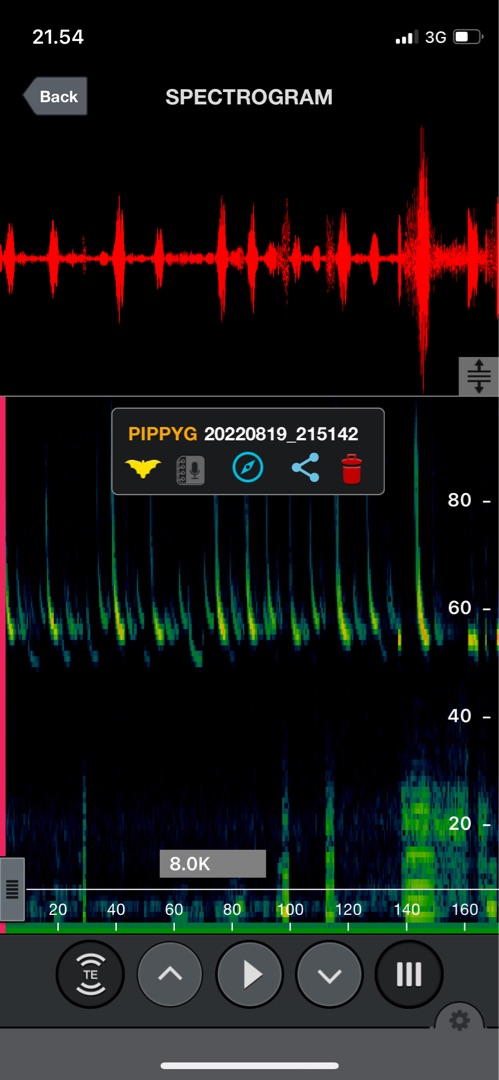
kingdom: Animalia
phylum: Chordata
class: Mammalia
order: Chiroptera
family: Vespertilionidae
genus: Pipistrellus
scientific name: Pipistrellus pygmaeus
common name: Dværgflagermus
